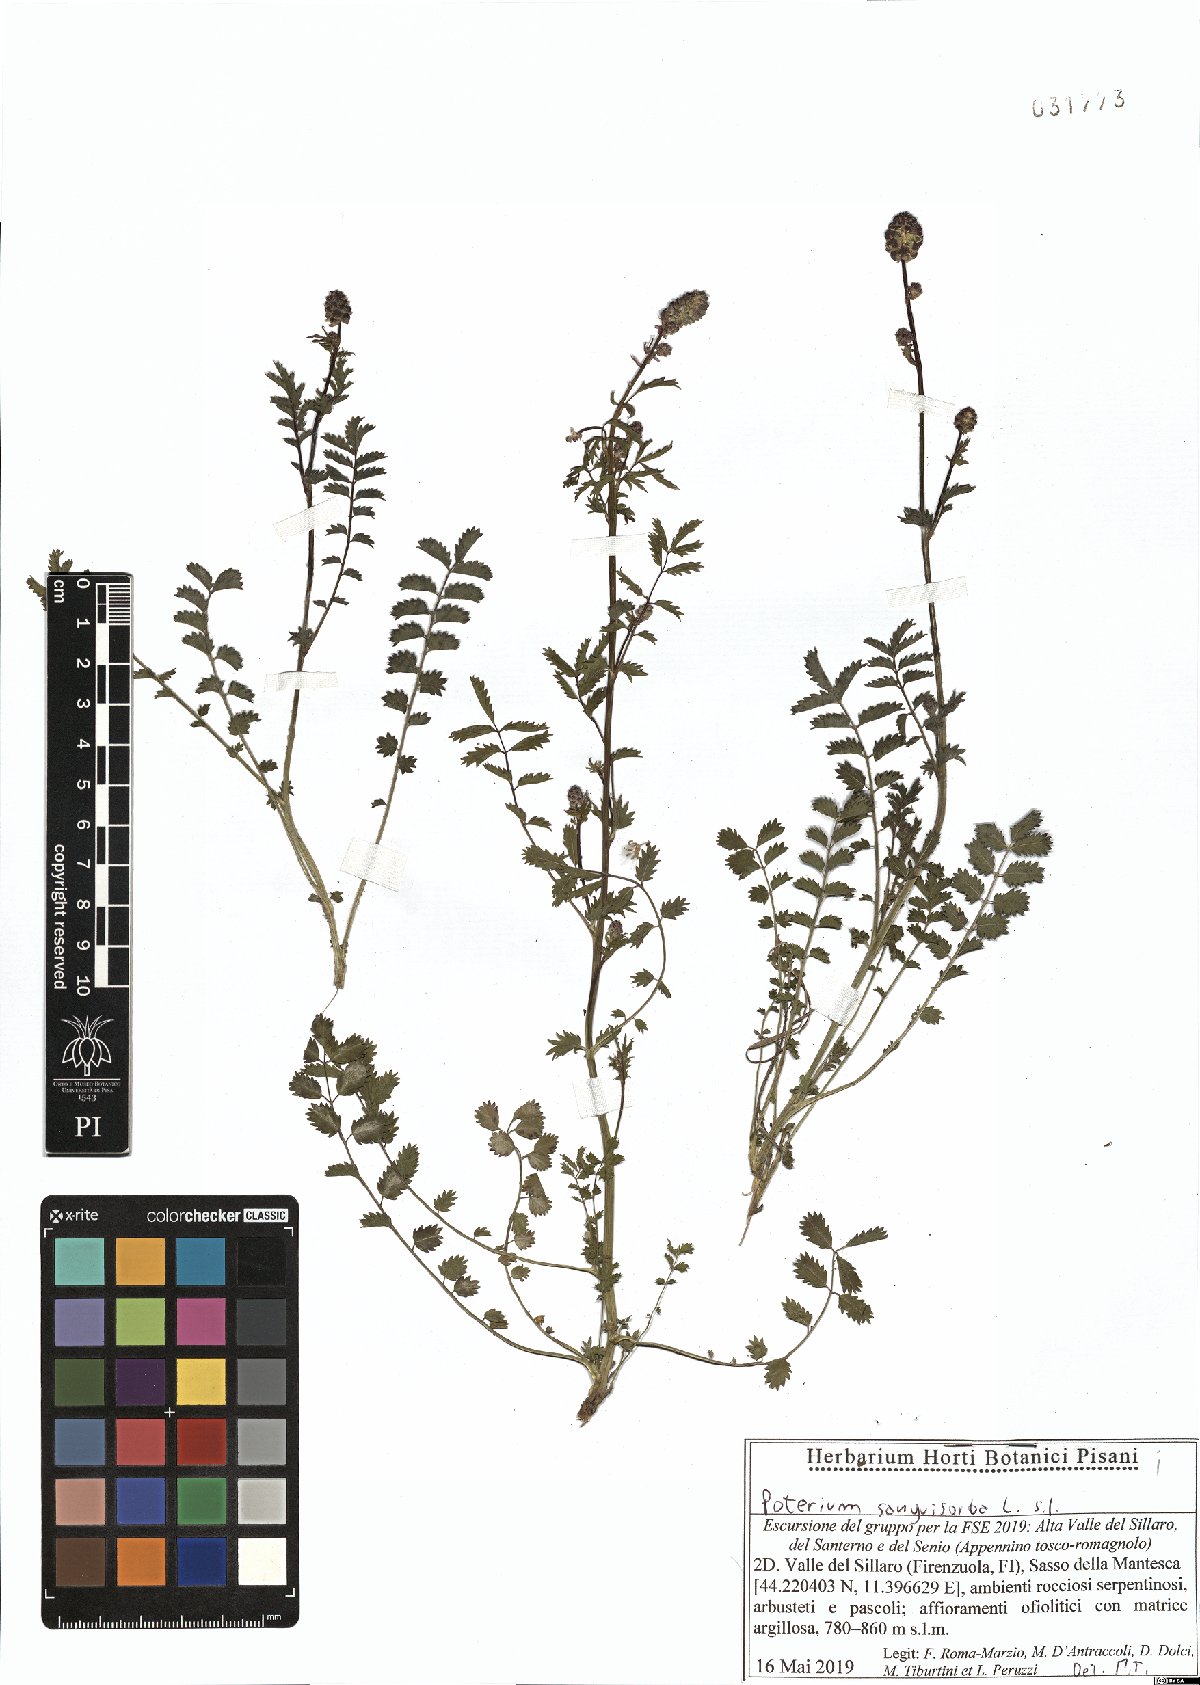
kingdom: Plantae
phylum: Tracheophyta
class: Magnoliopsida
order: Rosales
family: Rosaceae
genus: Poterium
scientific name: Poterium sanguisorba
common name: Salad burnet
